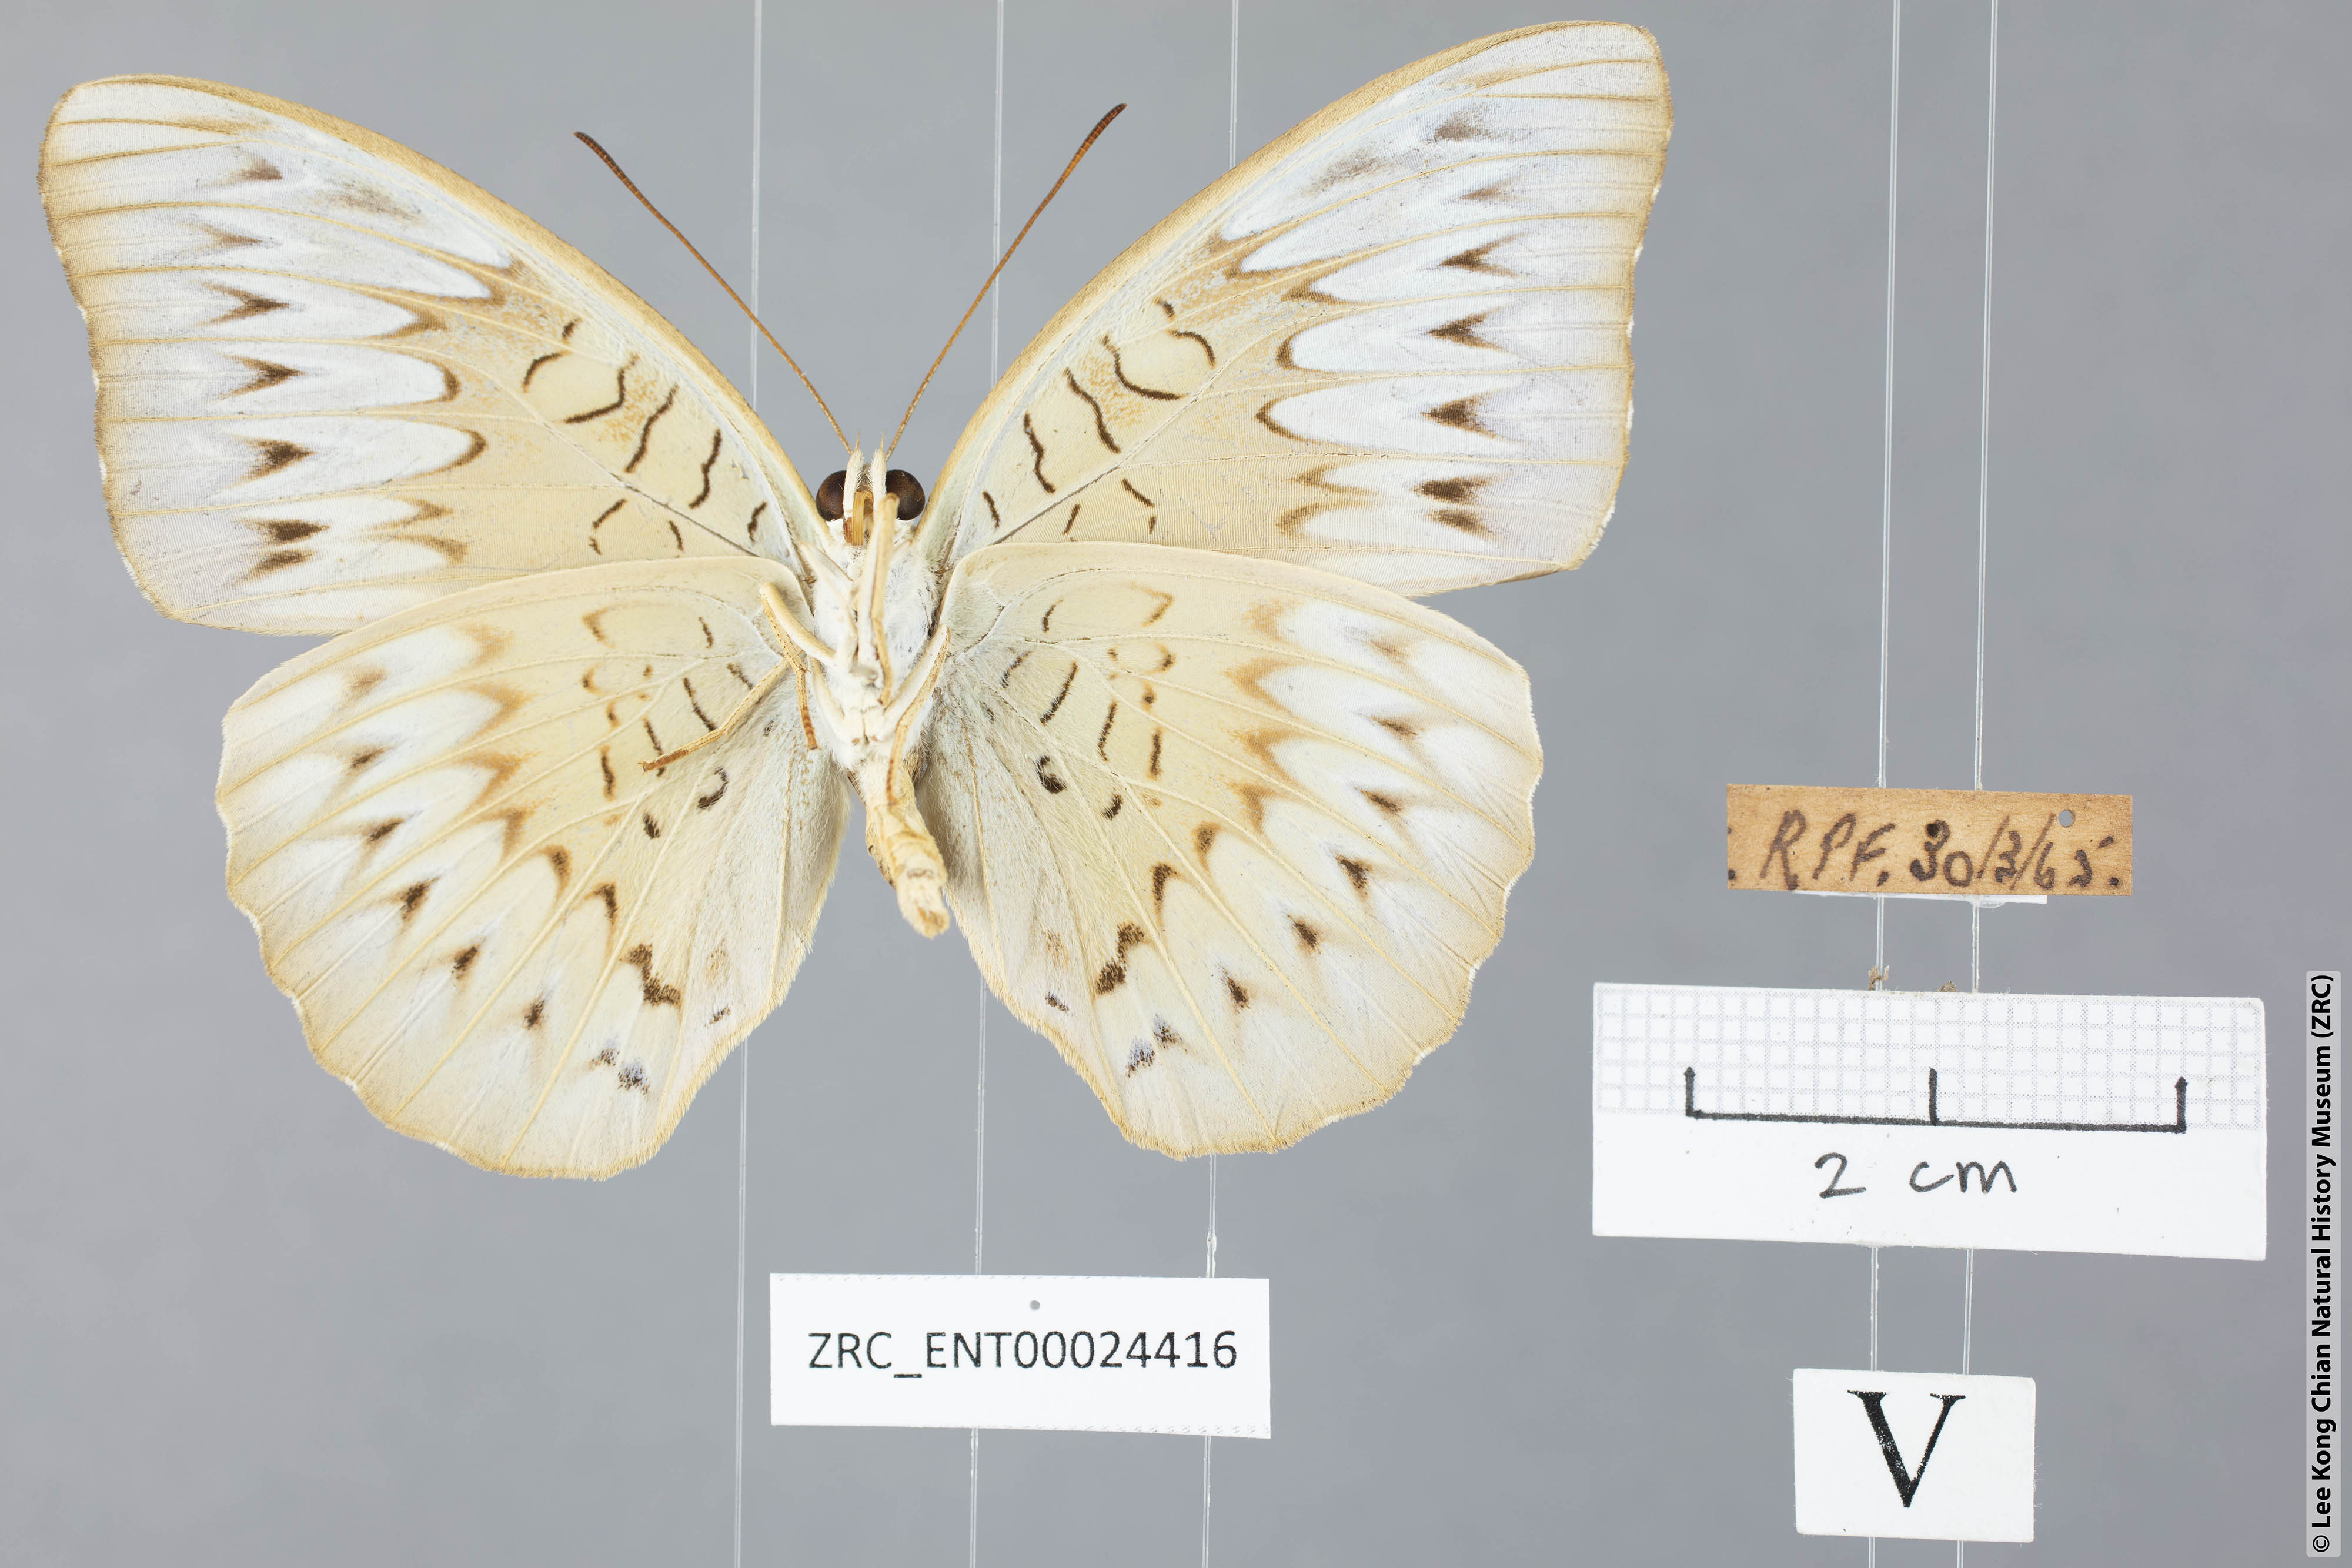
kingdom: Animalia
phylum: Arthropoda
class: Insecta
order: Lepidoptera
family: Nymphalidae
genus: Tanaecia
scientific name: Tanaecia pelea
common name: Malay viscount
